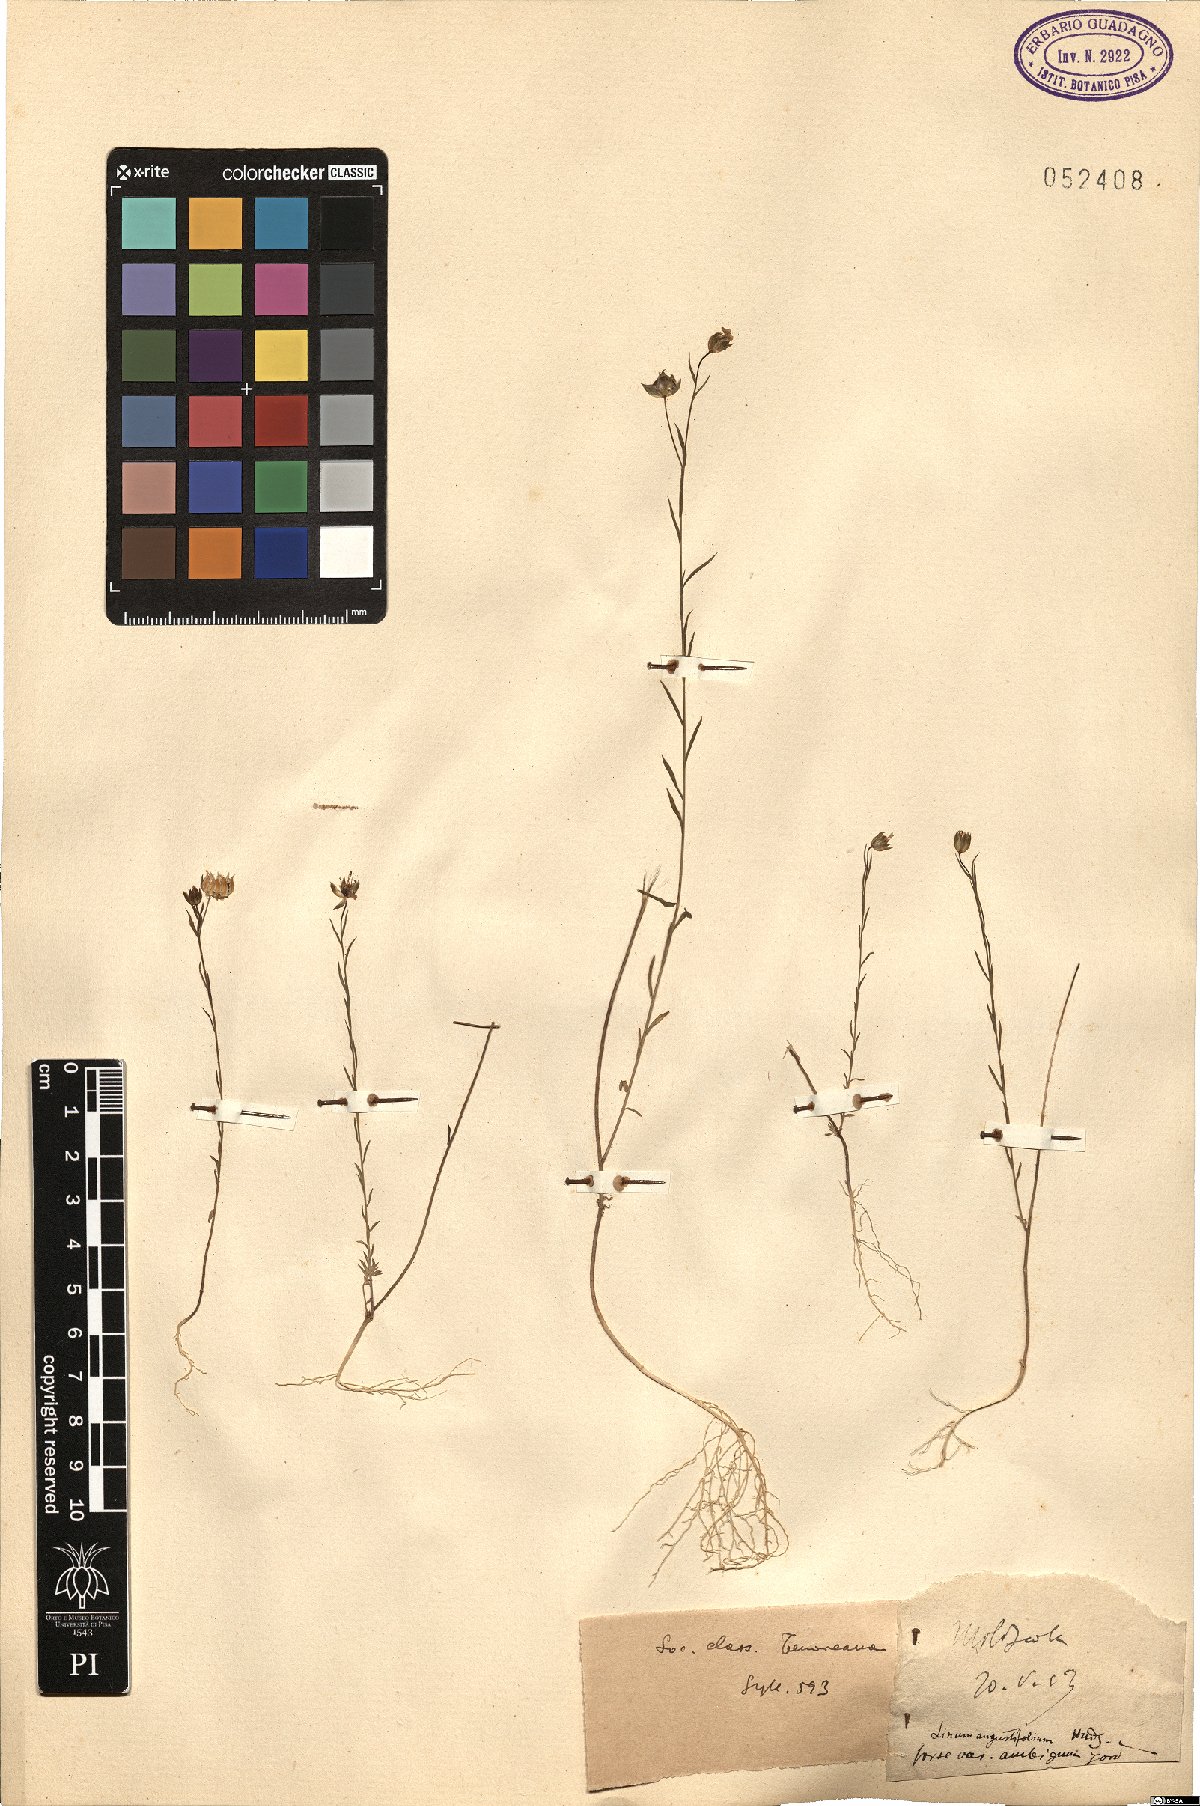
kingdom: Plantae
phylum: Tracheophyta
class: Magnoliopsida
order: Malpighiales
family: Linaceae
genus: Linum
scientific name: Linum bienne
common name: Pale flax
